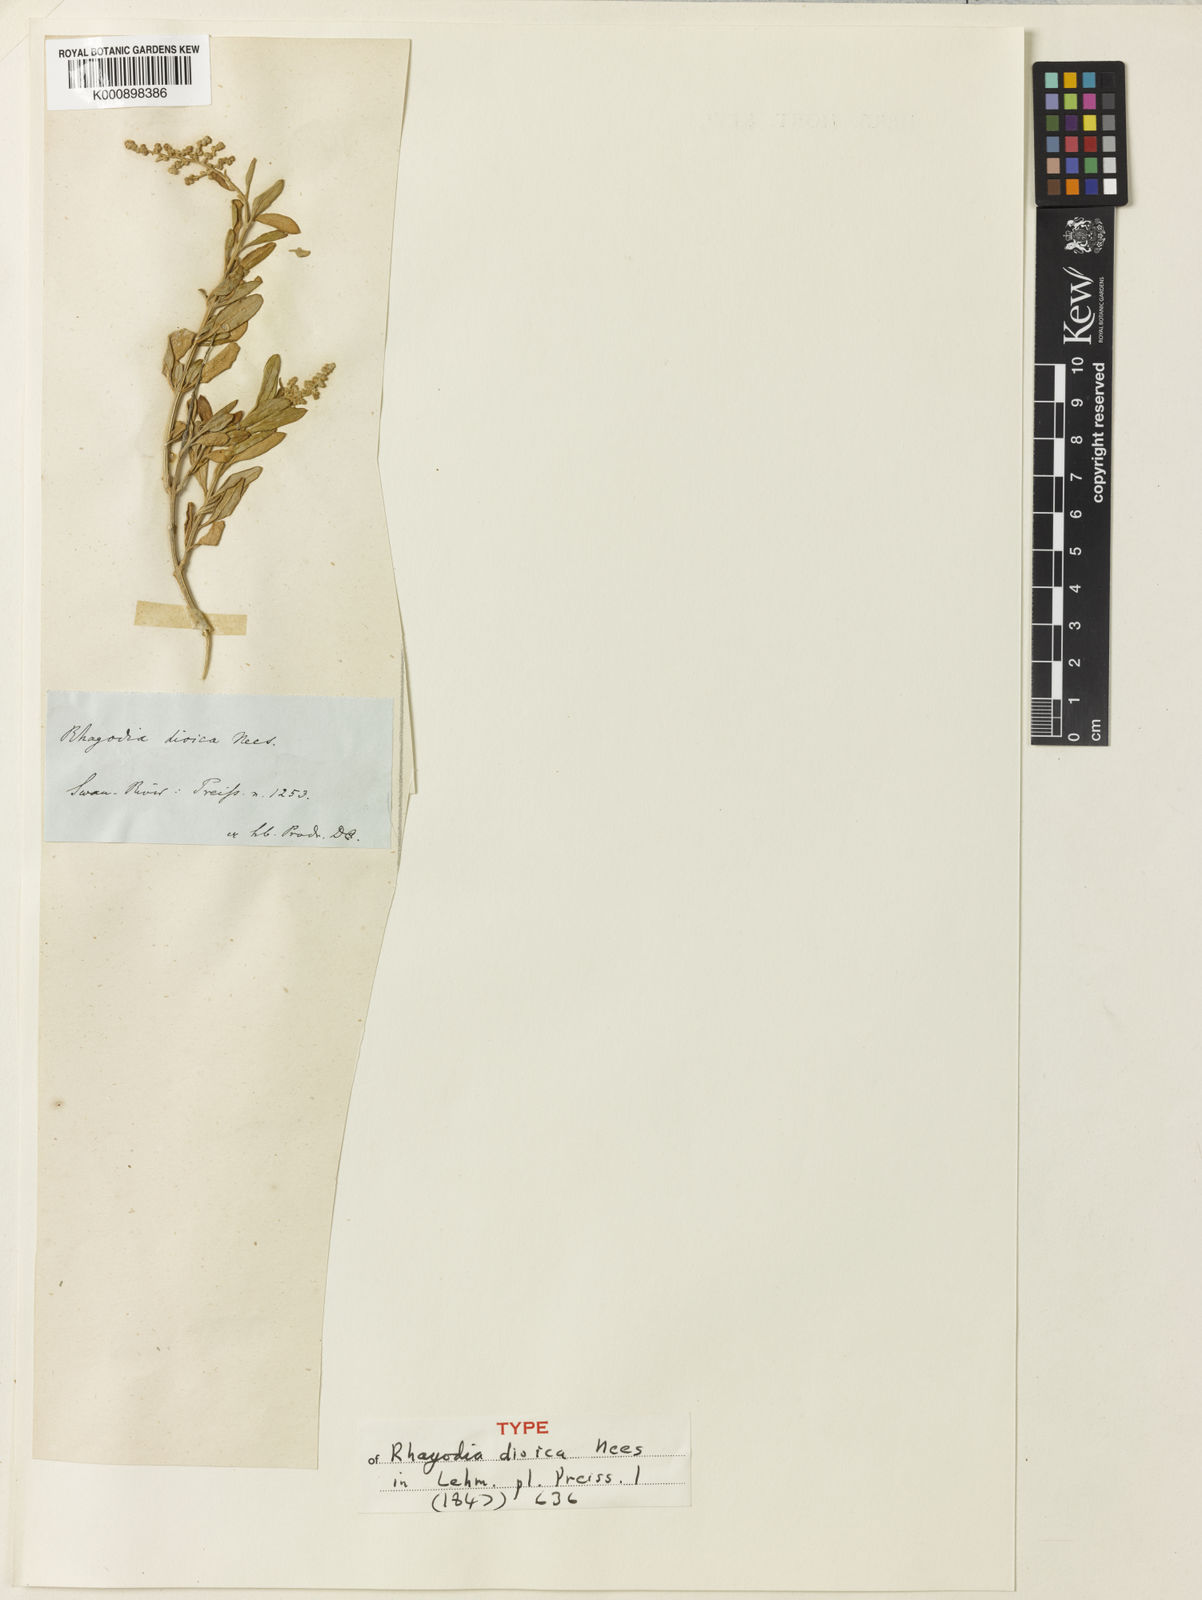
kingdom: Plantae
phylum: Tracheophyta
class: Magnoliopsida
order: Caryophyllales
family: Amaranthaceae
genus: Chenopodium
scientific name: Chenopodium baccatum
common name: Coastal-saltbush
